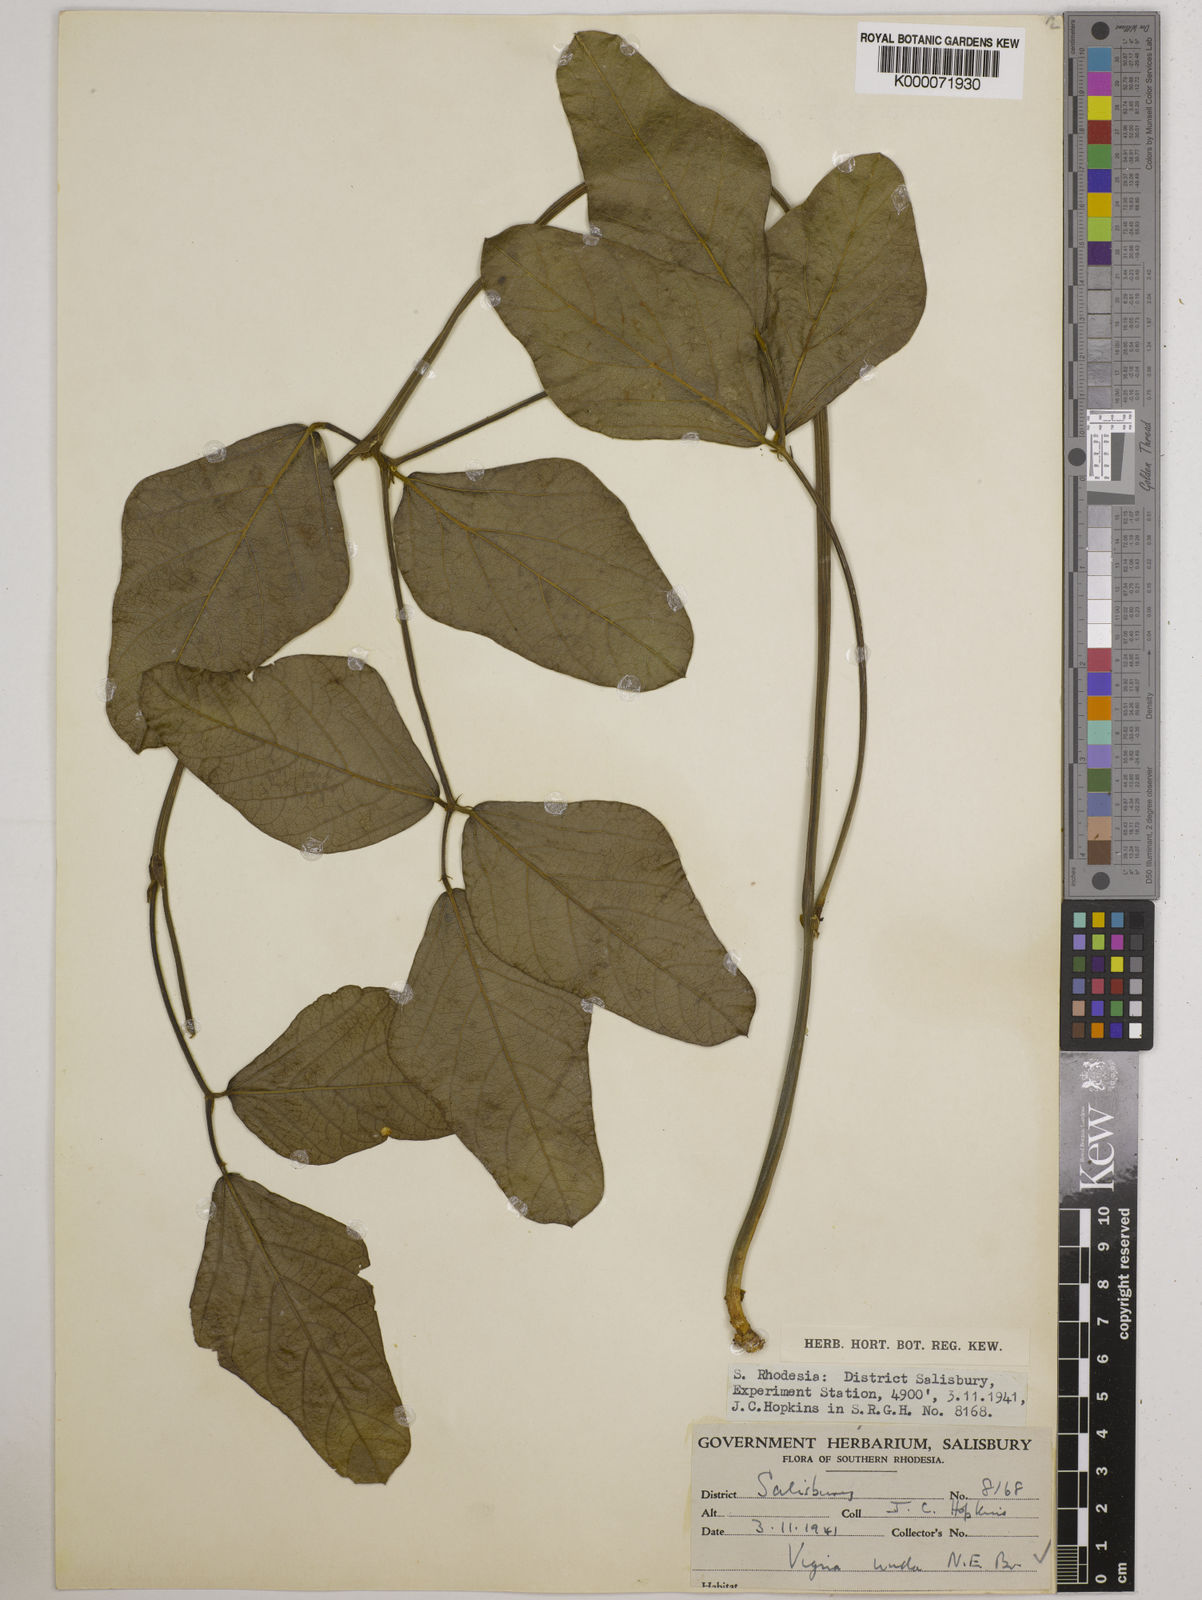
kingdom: Plantae
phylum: Tracheophyta
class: Magnoliopsida
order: Fabales
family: Fabaceae
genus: Vigna
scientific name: Vigna antunesii
